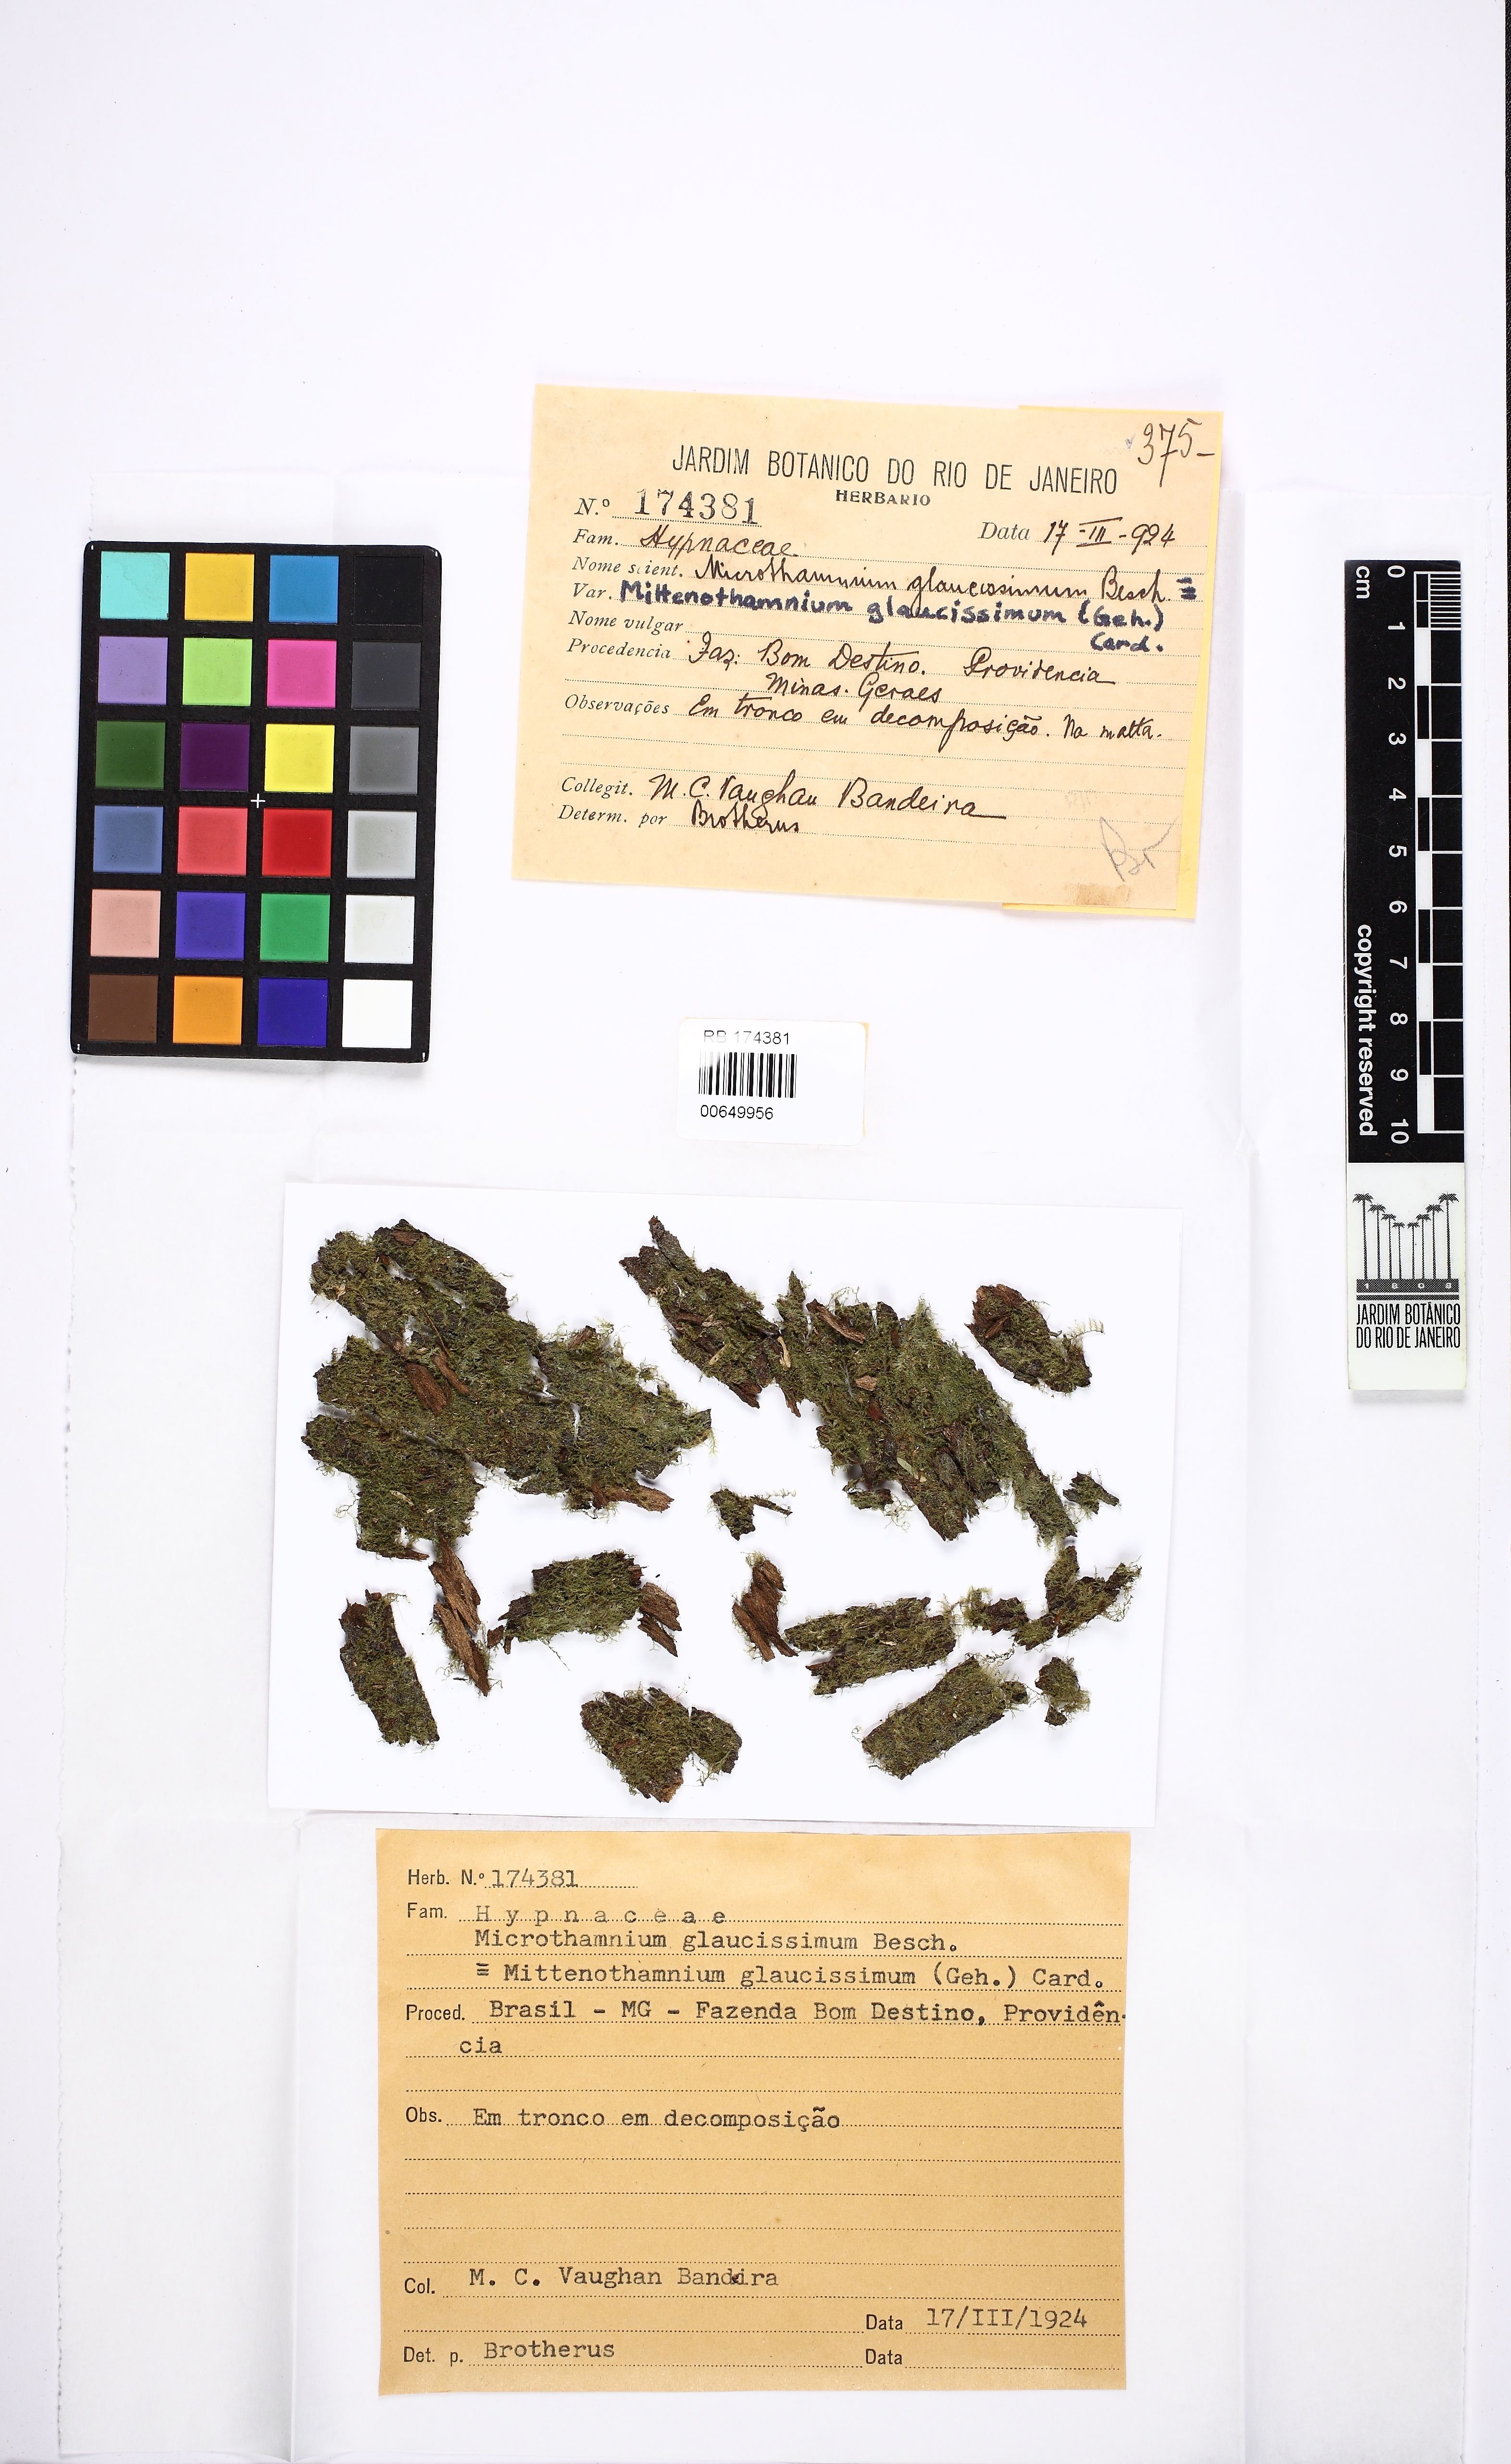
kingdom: Plantae
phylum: Bryophyta
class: Bryopsida
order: Hypnales
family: Hypnaceae
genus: Mittenothamnium
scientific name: Mittenothamnium glaucissimum
